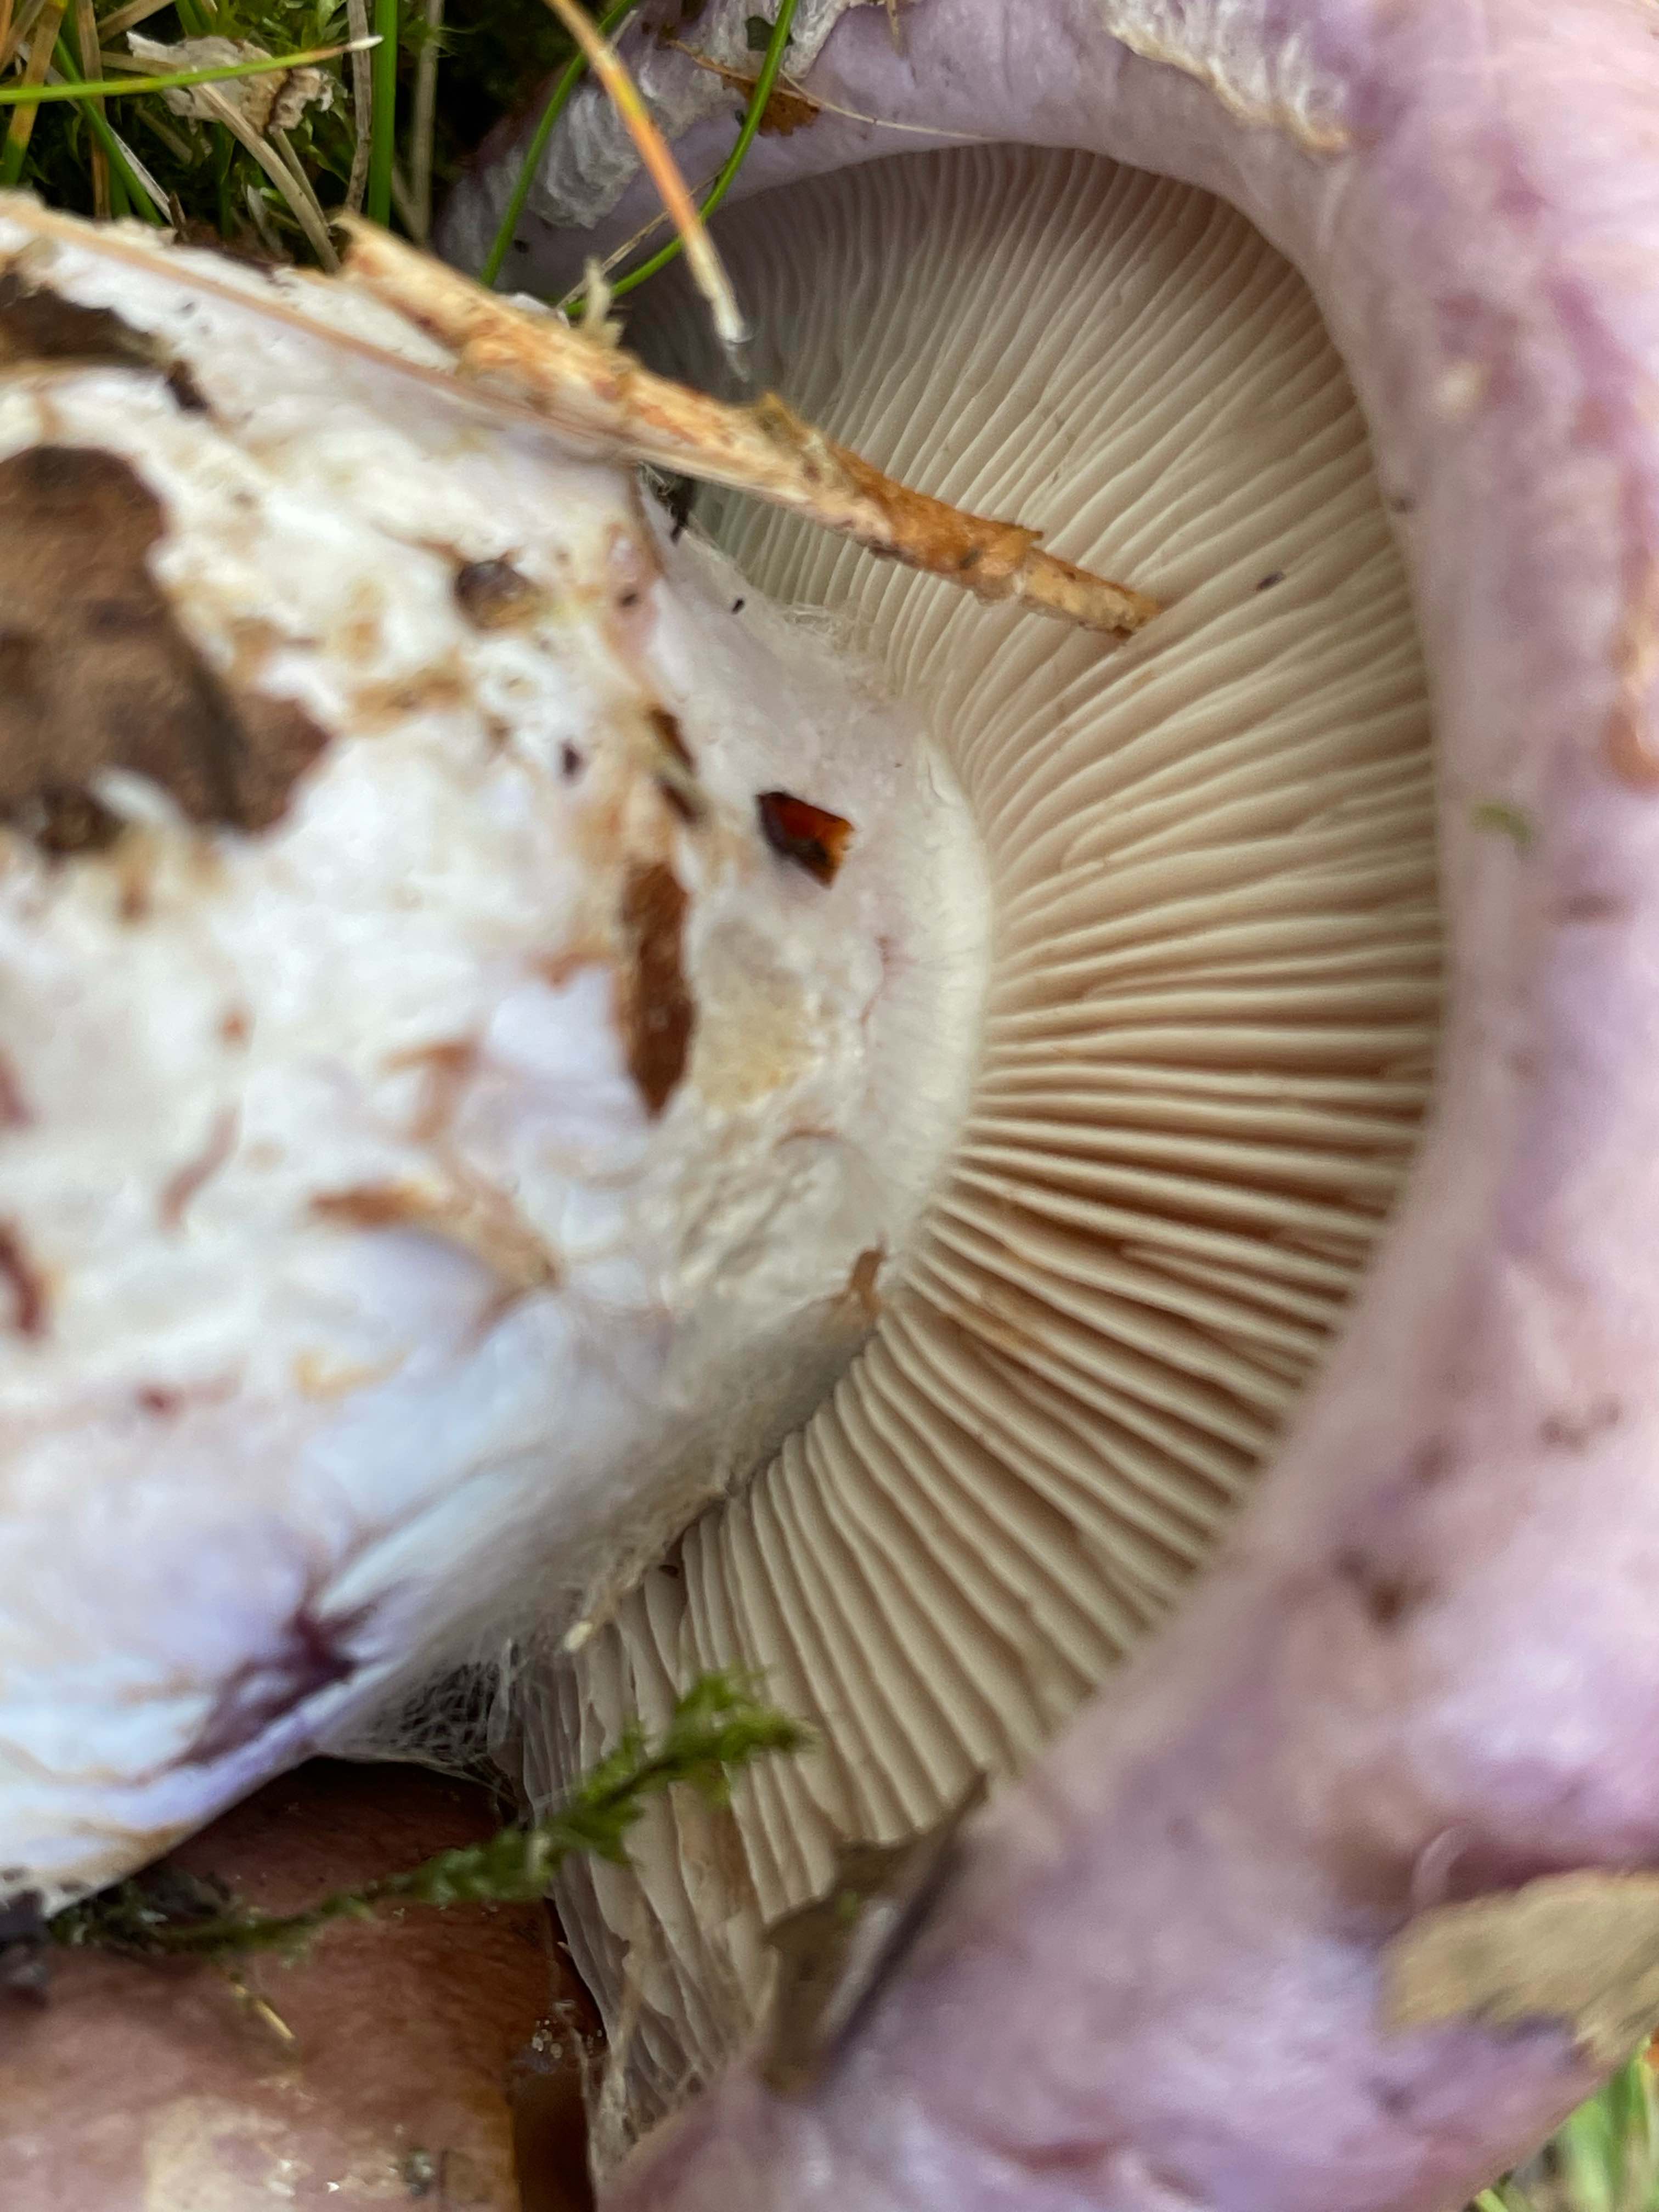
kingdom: Fungi
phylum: Basidiomycota
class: Agaricomycetes
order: Agaricales
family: Cortinariaceae
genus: Phlegmacium
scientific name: Phlegmacium balteatocumatile
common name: violettrådet slørhat
